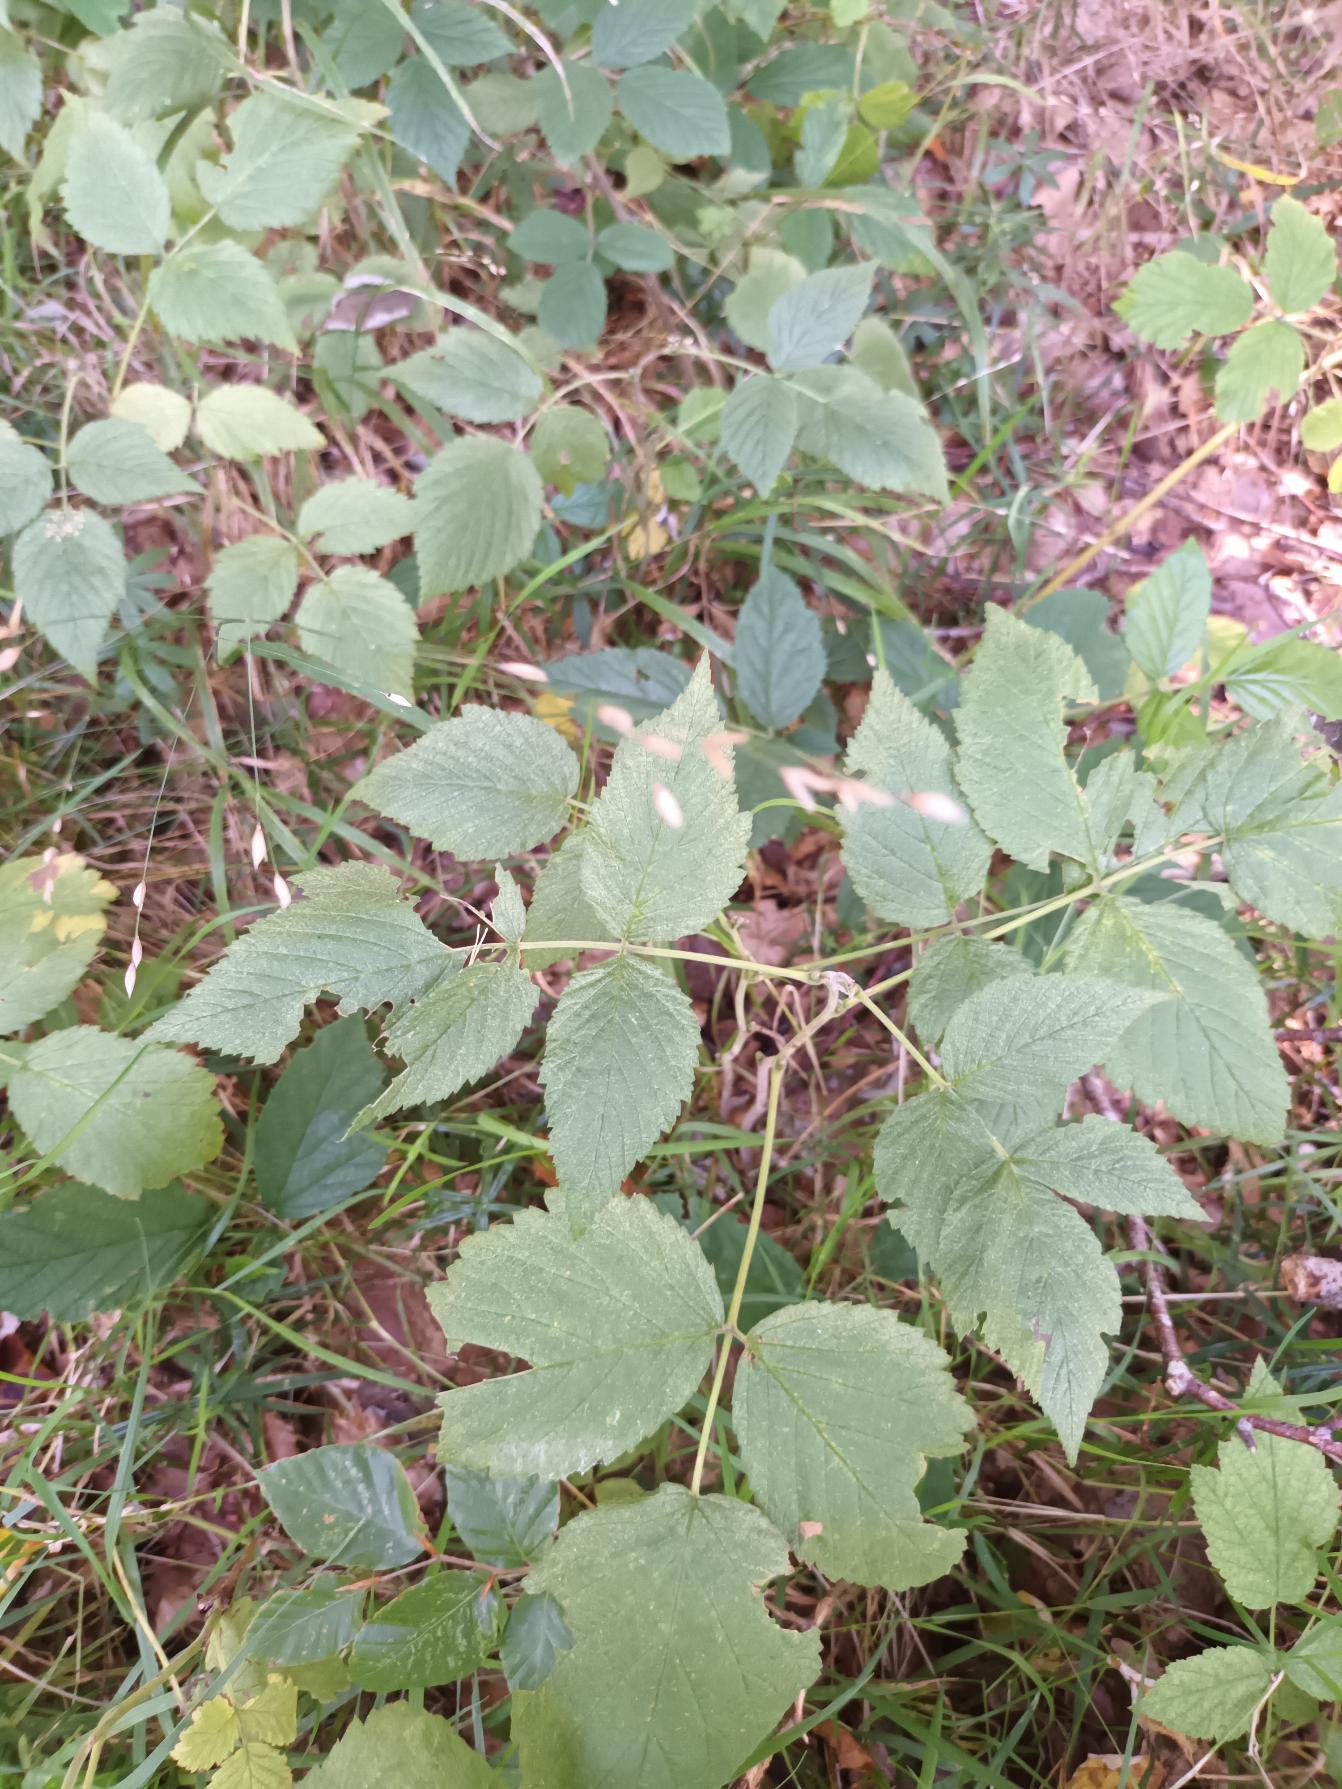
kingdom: Plantae
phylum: Tracheophyta
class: Liliopsida
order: Poales
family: Poaceae
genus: Melica
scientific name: Melica uniflora
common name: Enblomstret flitteraks
